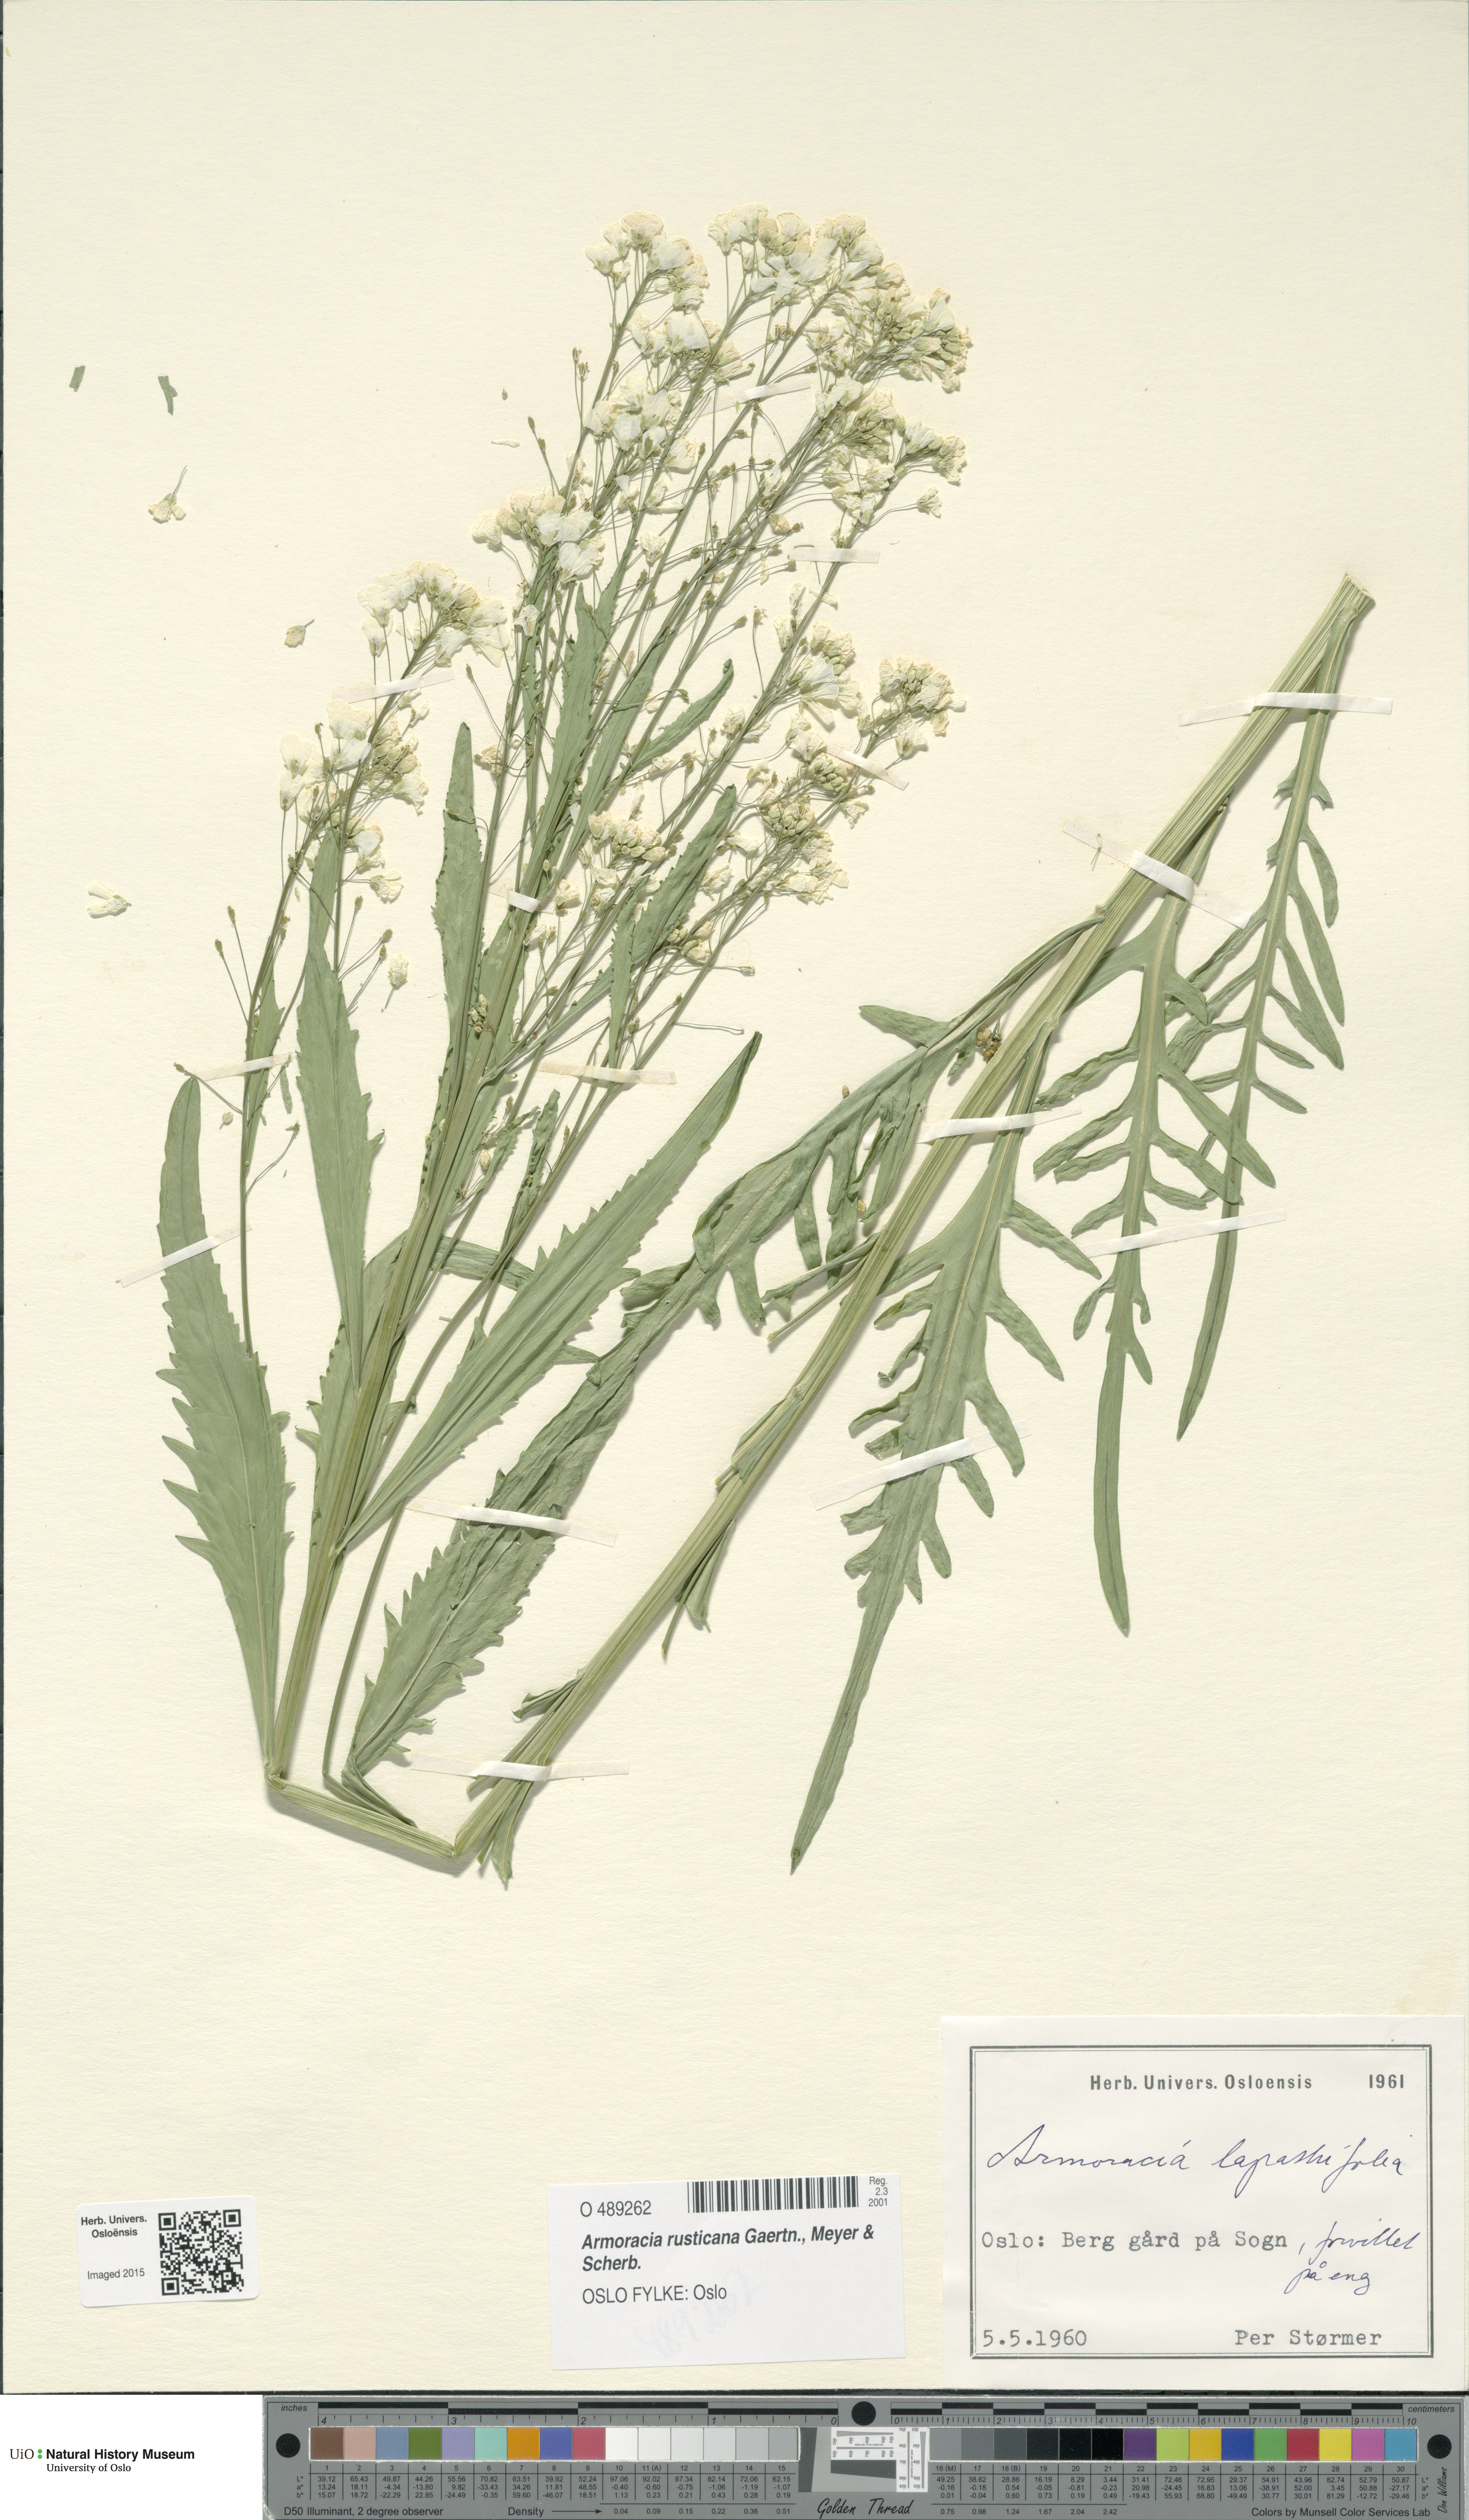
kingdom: Plantae
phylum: Tracheophyta
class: Magnoliopsida
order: Brassicales
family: Brassicaceae
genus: Armoracia
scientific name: Armoracia rusticana
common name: Horseradish
